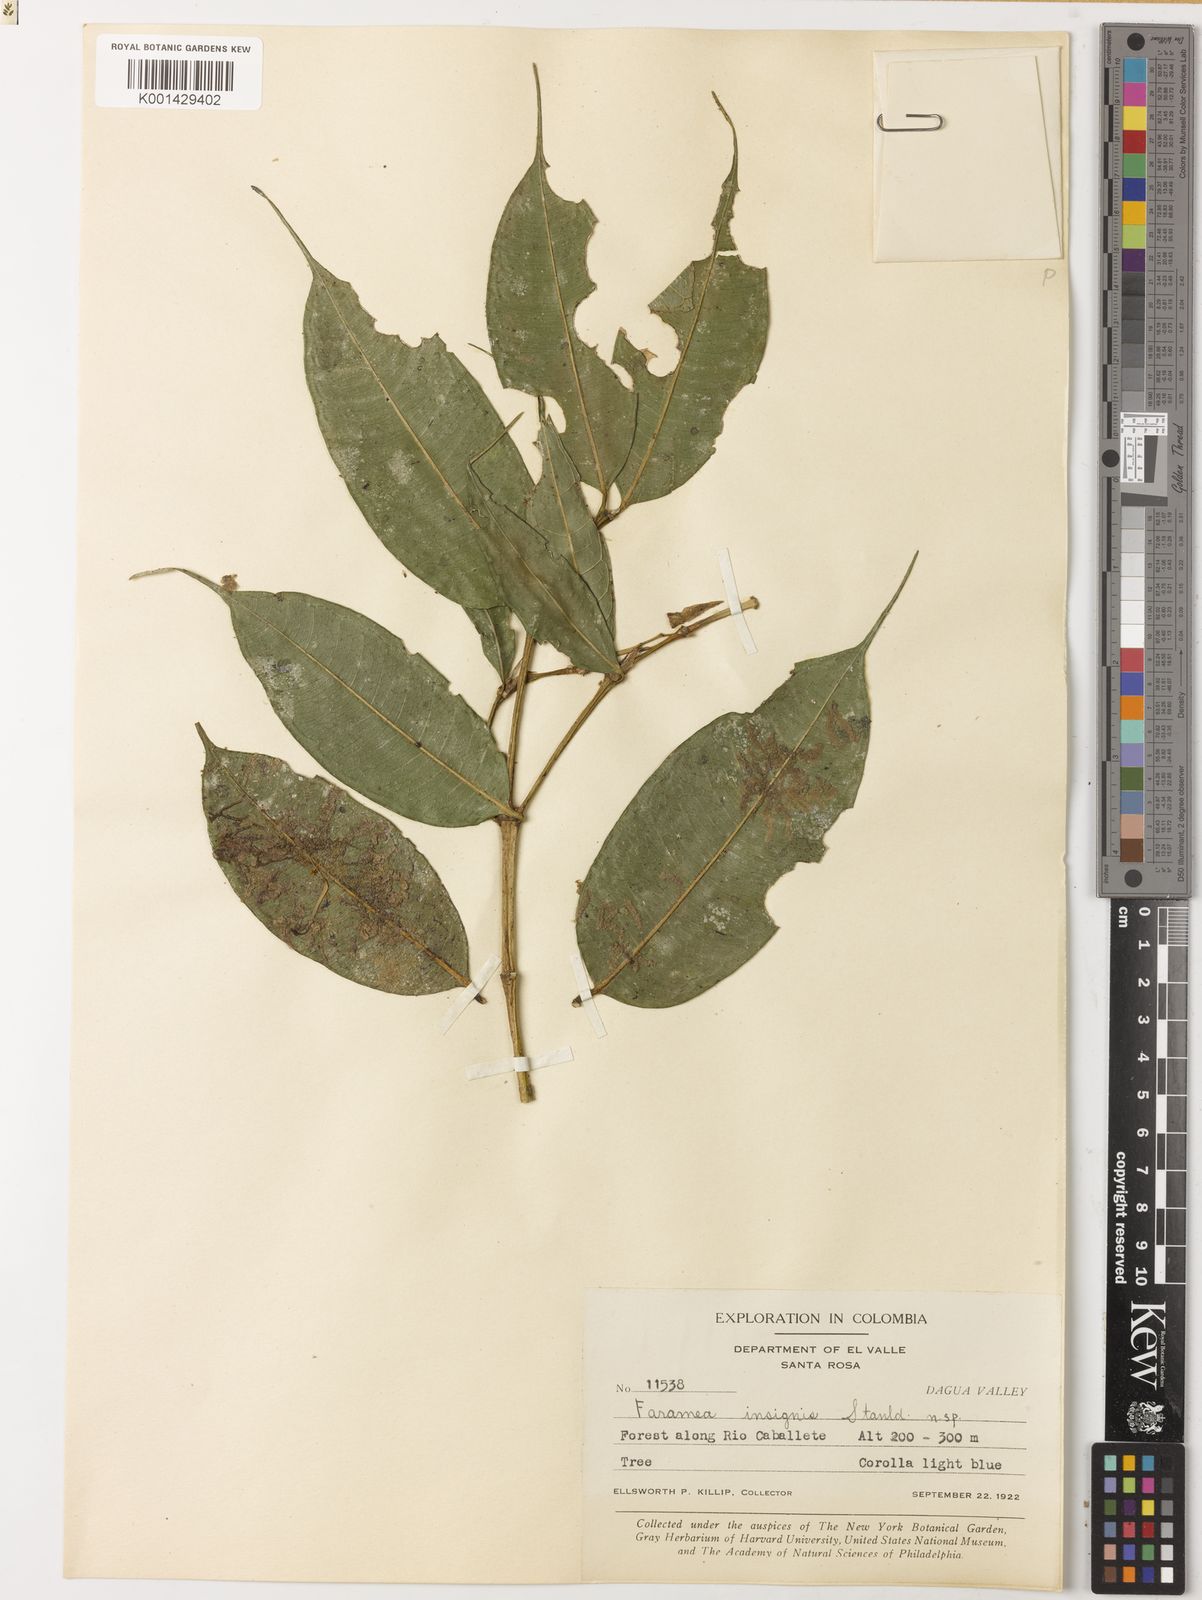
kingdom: Plantae
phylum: Tracheophyta
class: Magnoliopsida
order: Gentianales
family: Rubiaceae
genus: Faramea
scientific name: Faramea insignis
